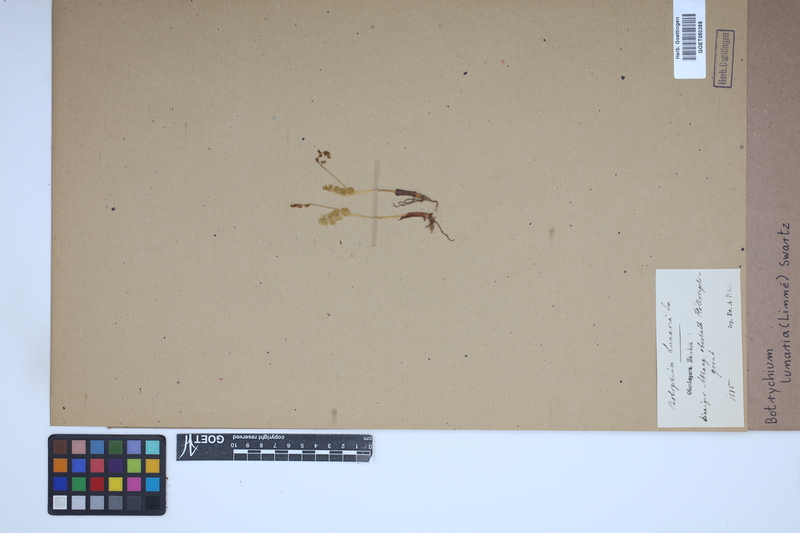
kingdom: Plantae
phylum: Tracheophyta
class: Polypodiopsida
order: Ophioglossales
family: Ophioglossaceae
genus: Botrychium
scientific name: Botrychium lunaria
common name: Moonwort
